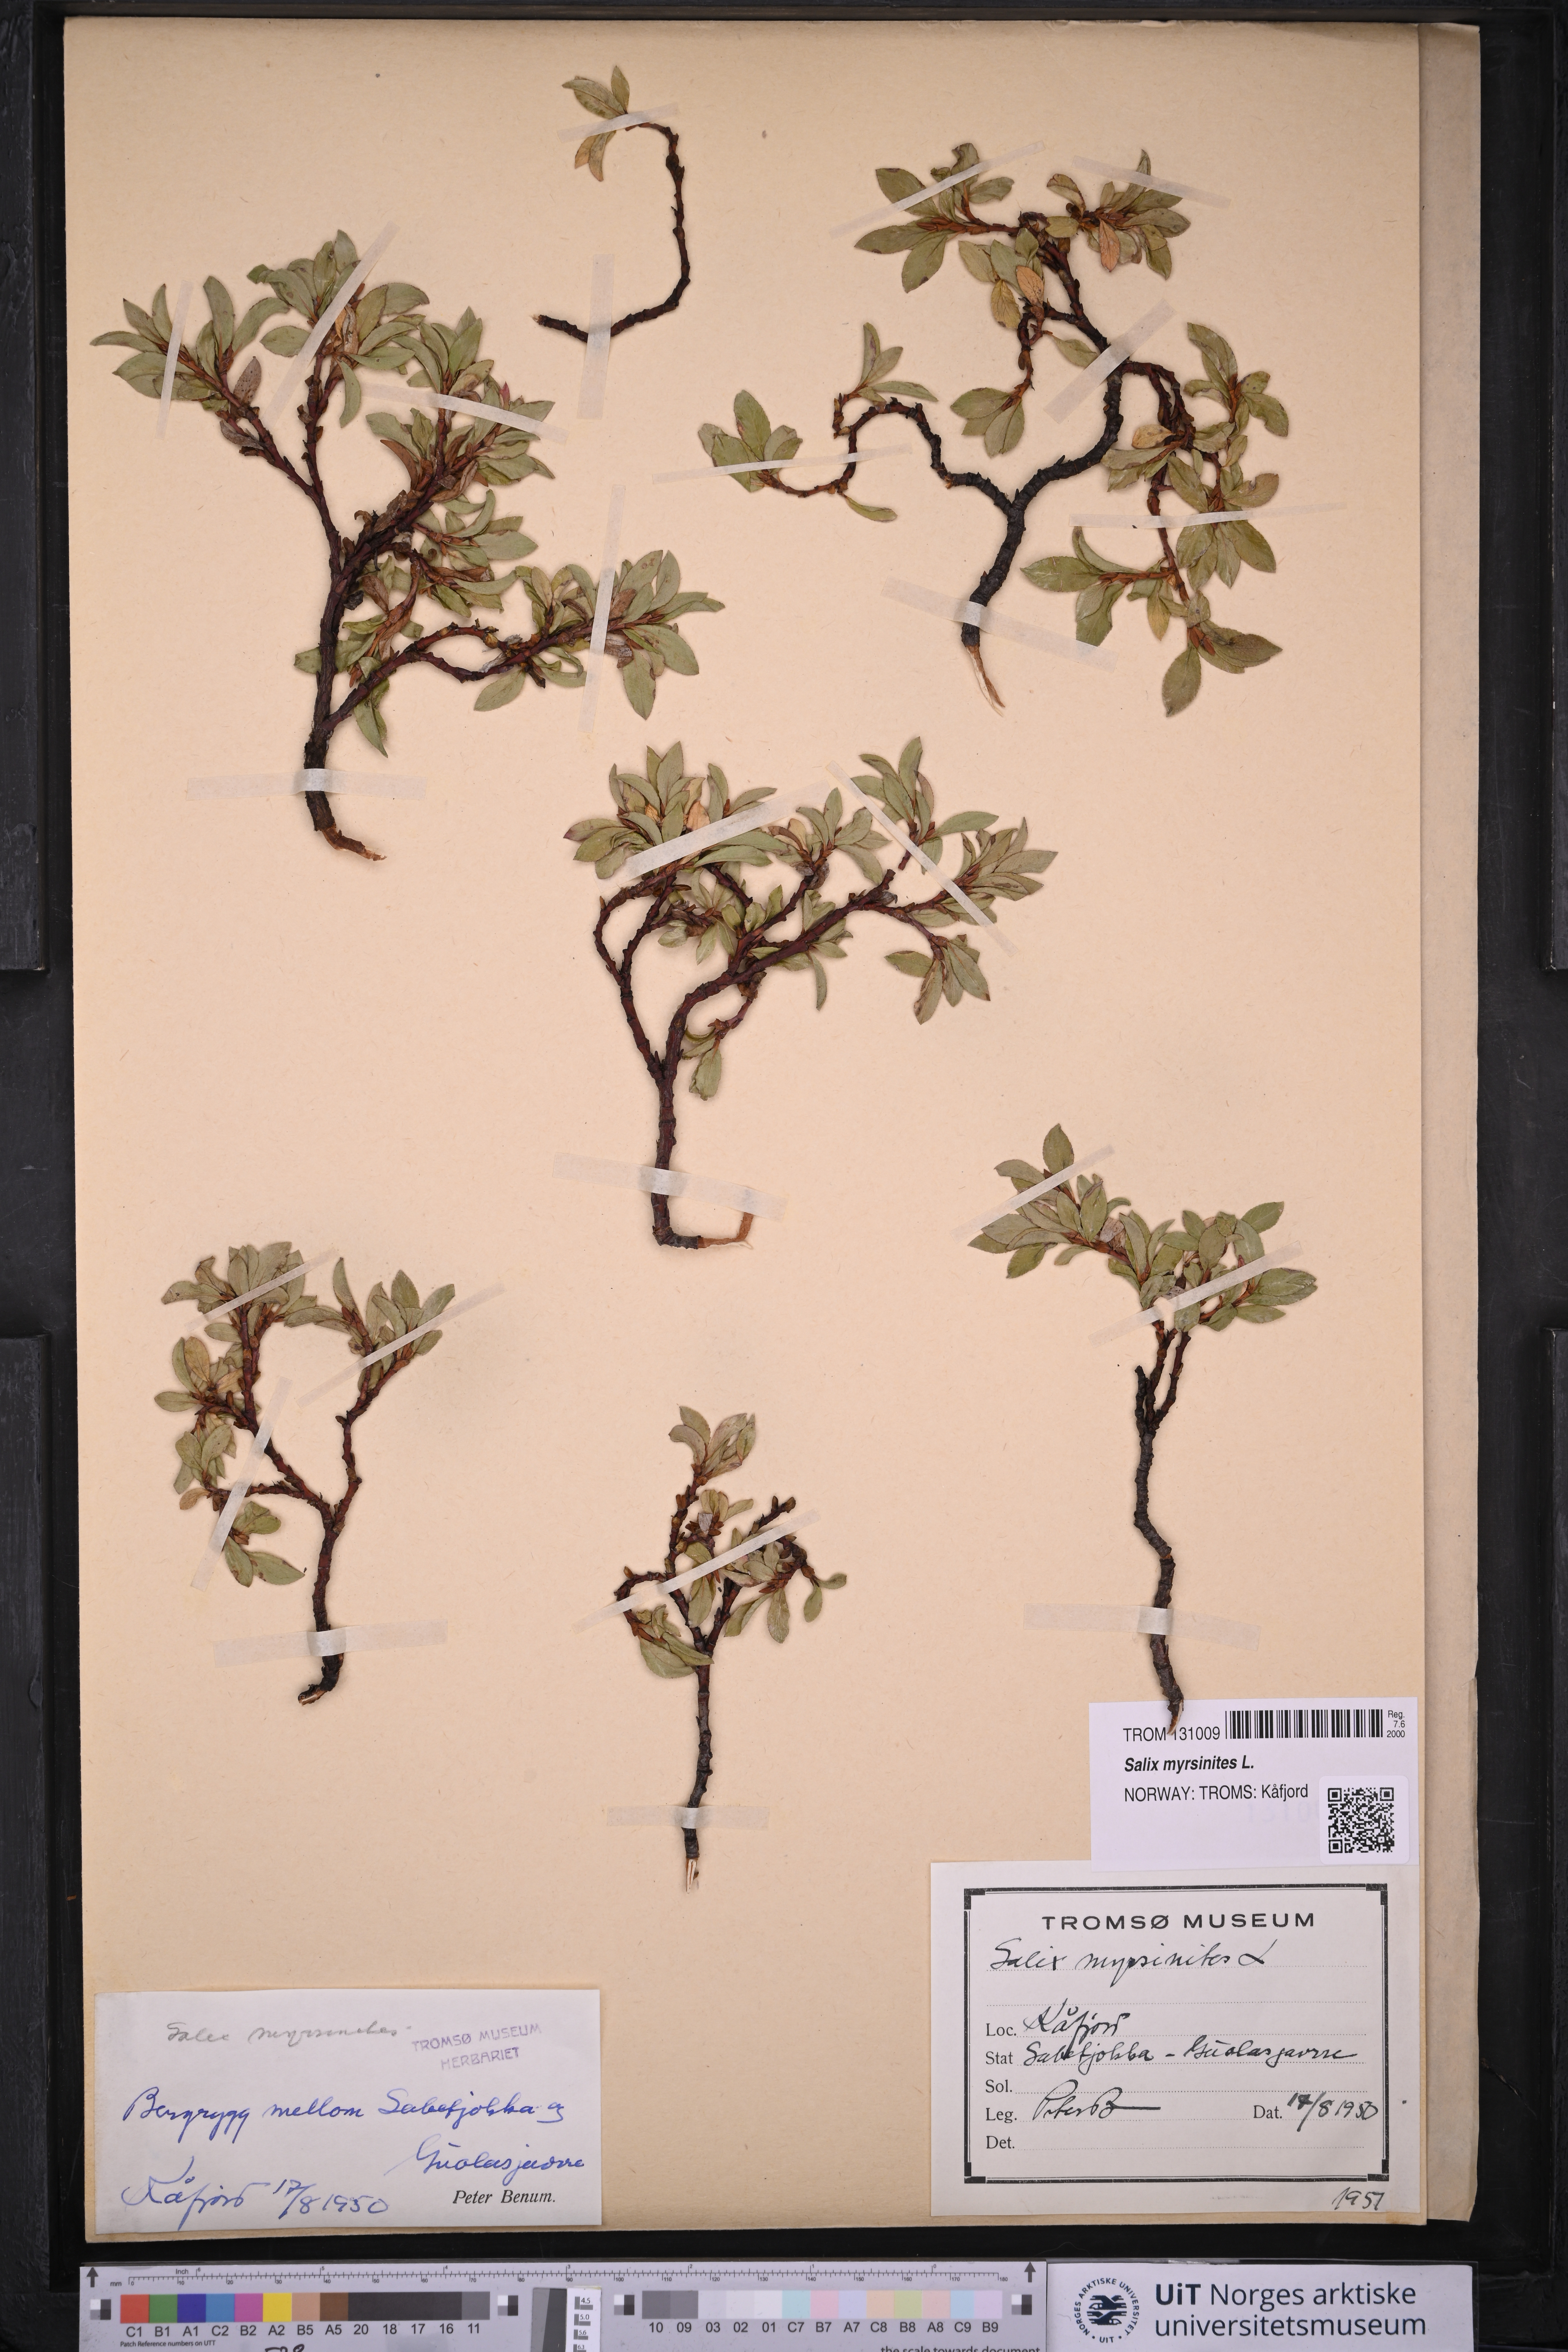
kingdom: Plantae
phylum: Tracheophyta
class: Magnoliopsida
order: Malpighiales
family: Salicaceae
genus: Salix
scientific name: Salix myrsinites
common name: Myrtle willow
